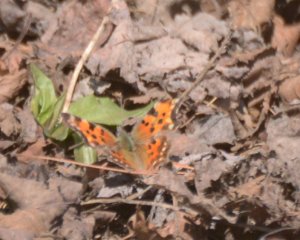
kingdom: Animalia
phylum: Arthropoda
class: Insecta
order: Lepidoptera
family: Nymphalidae
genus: Polygonia
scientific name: Polygonia faunus
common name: Green Comma
